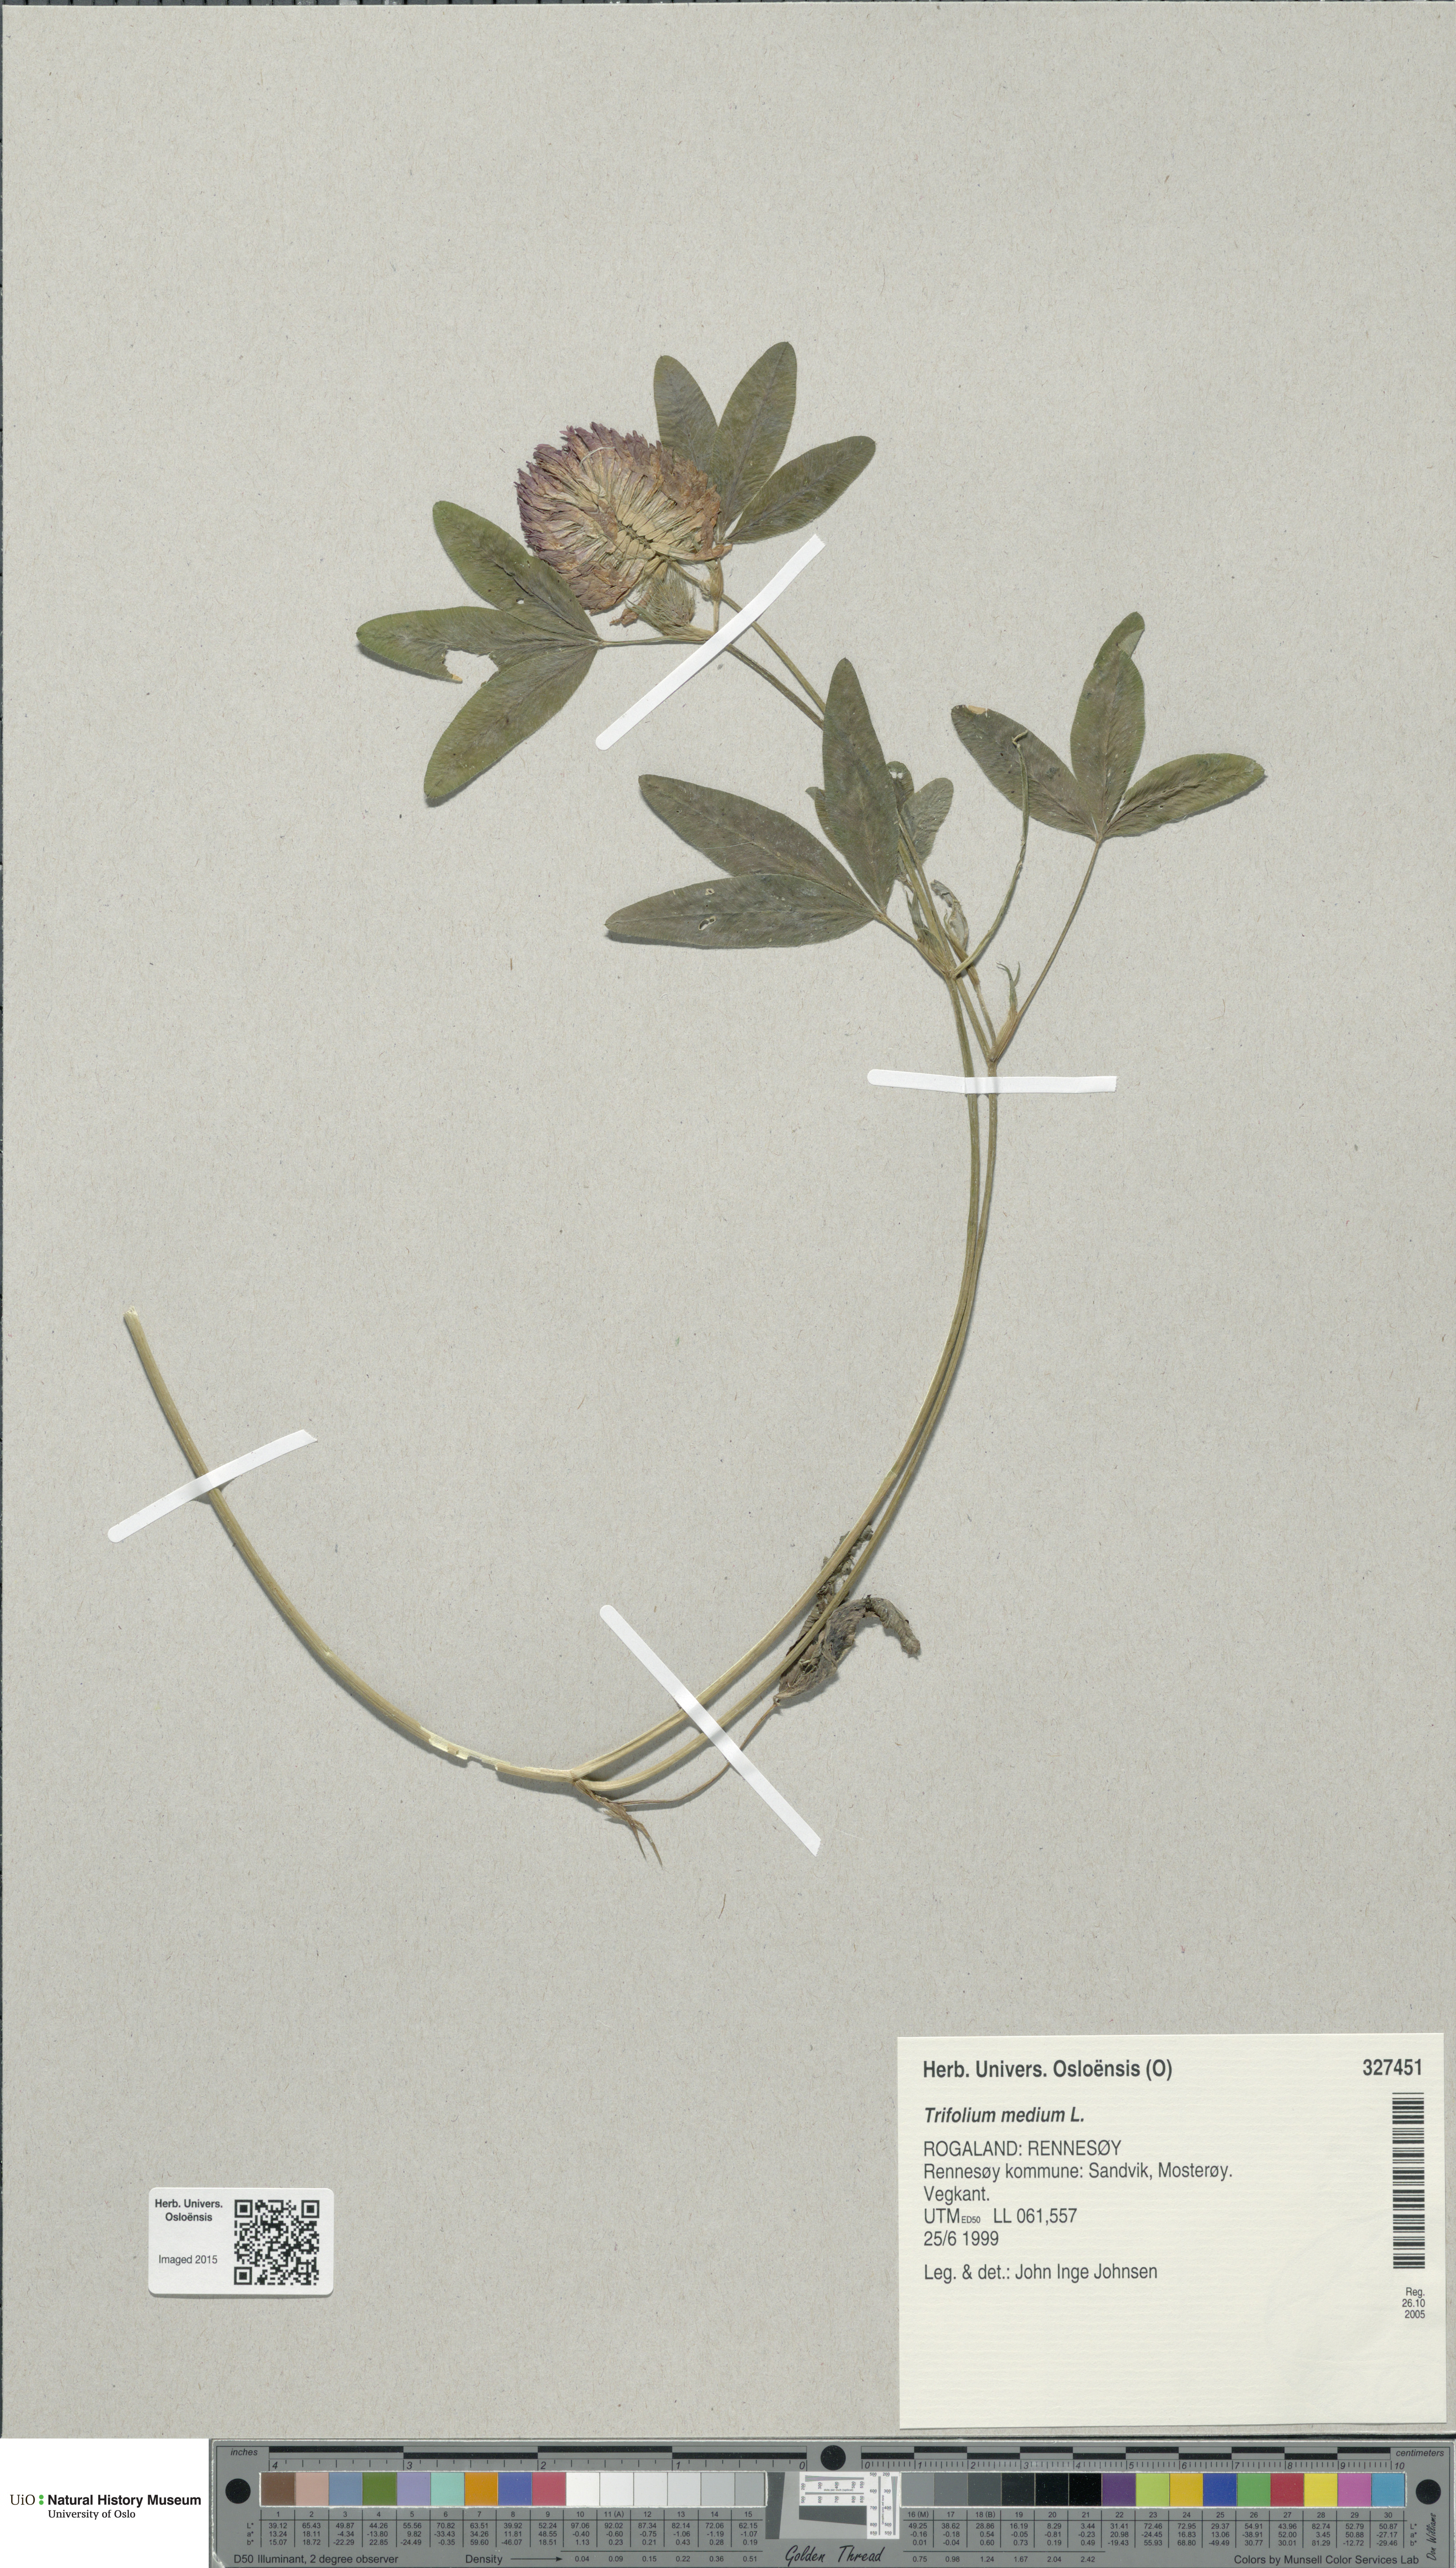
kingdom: Plantae
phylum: Tracheophyta
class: Magnoliopsida
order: Fabales
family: Fabaceae
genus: Trifolium
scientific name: Trifolium medium
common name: Zigzag clover
